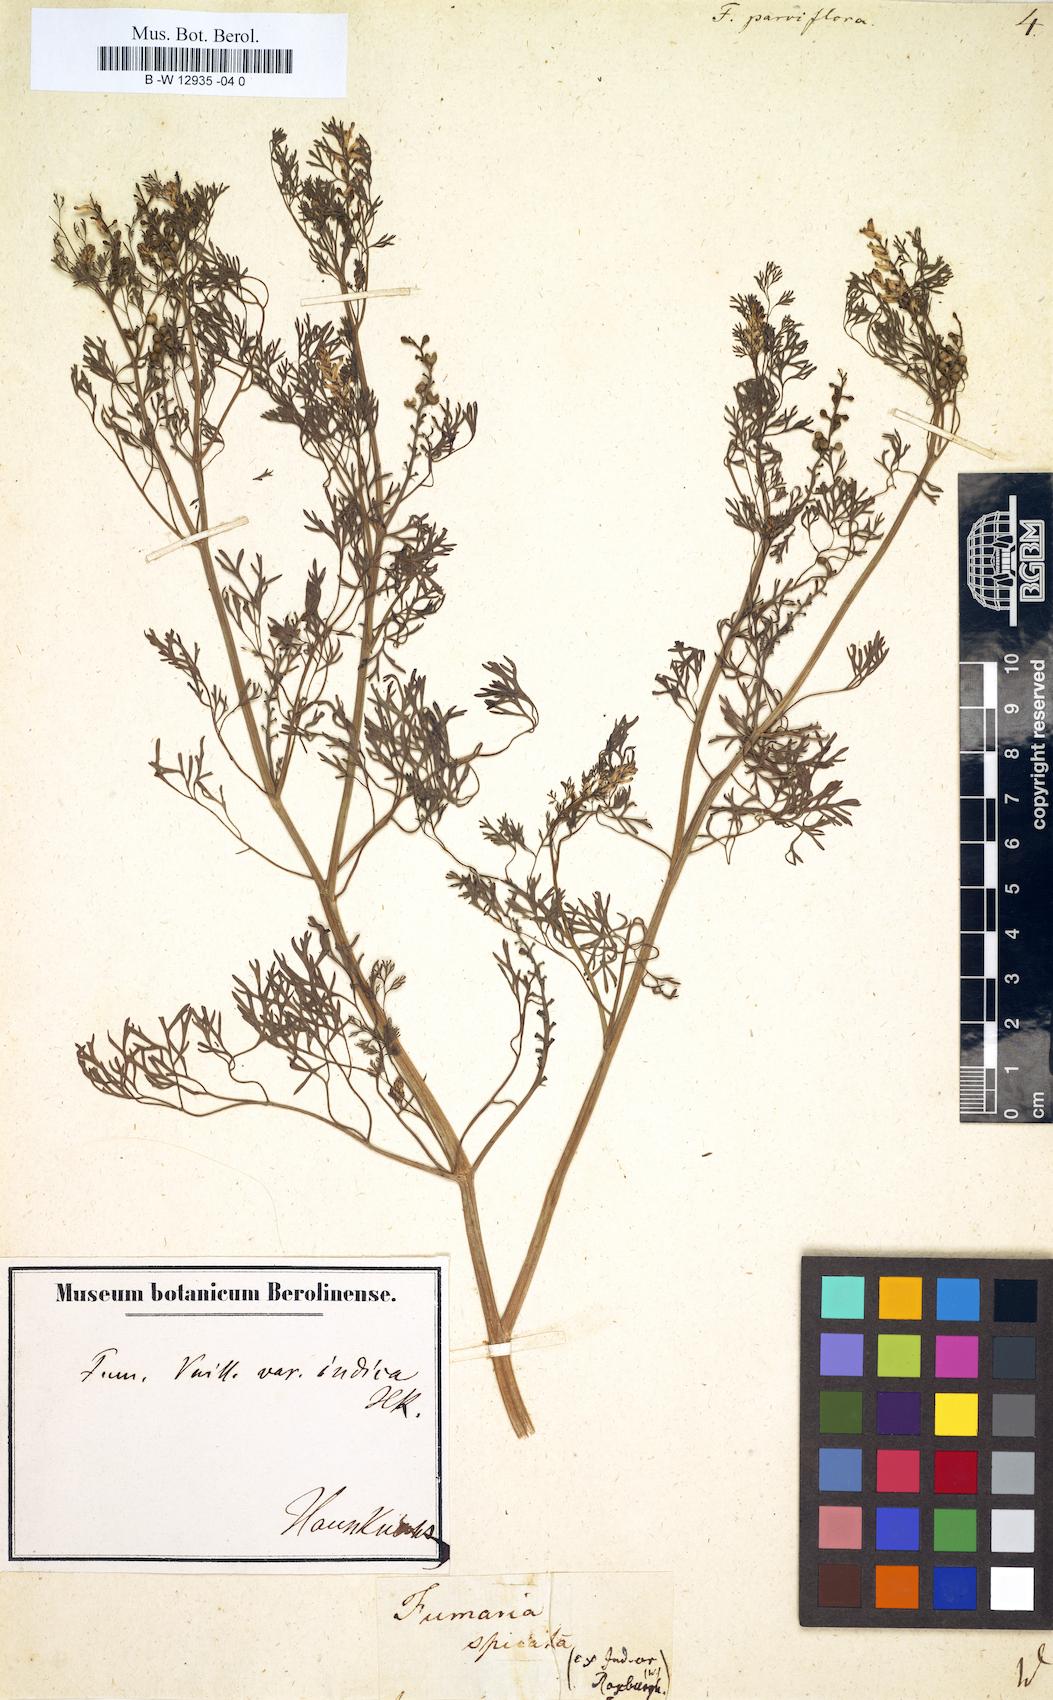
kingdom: Plantae
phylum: Tracheophyta
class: Magnoliopsida
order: Ranunculales
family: Papaveraceae
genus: Fumaria
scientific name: Fumaria parviflora
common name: Fine-leaved fumitory
